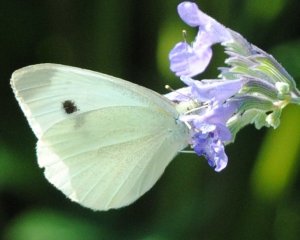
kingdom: Animalia
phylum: Arthropoda
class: Insecta
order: Lepidoptera
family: Pieridae
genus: Pieris
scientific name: Pieris rapae
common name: Cabbage White
